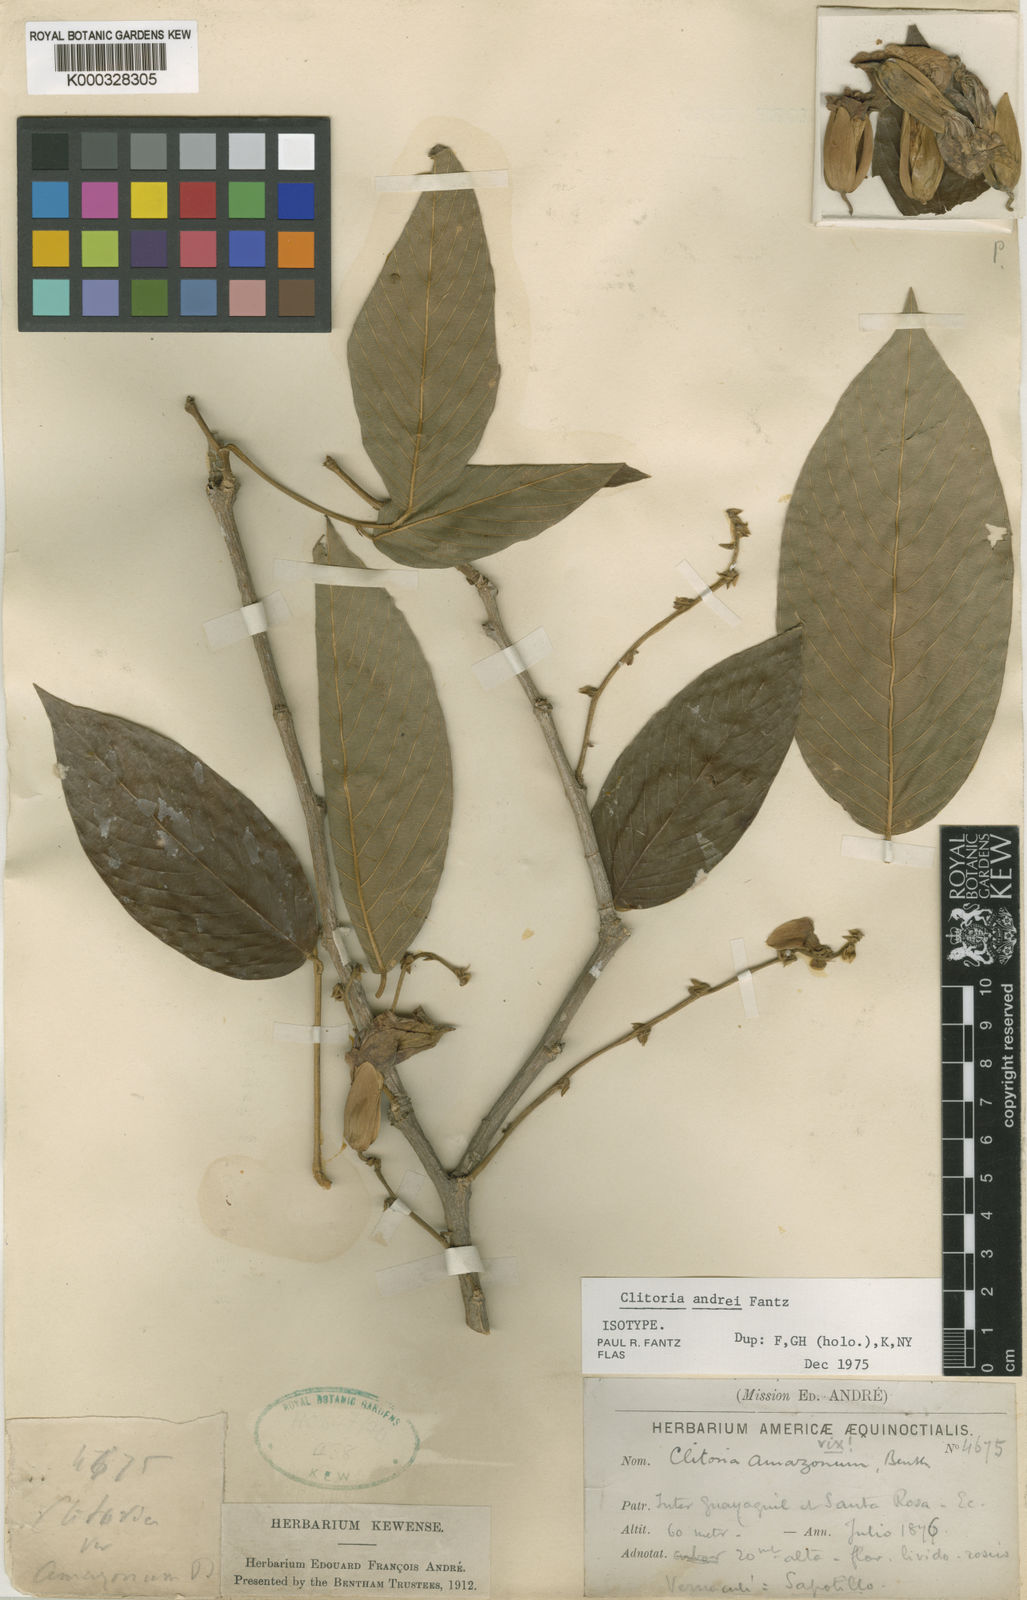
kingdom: Plantae
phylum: Tracheophyta
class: Magnoliopsida
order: Fabales
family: Fabaceae
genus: Clitoria
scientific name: Clitoria andrei
